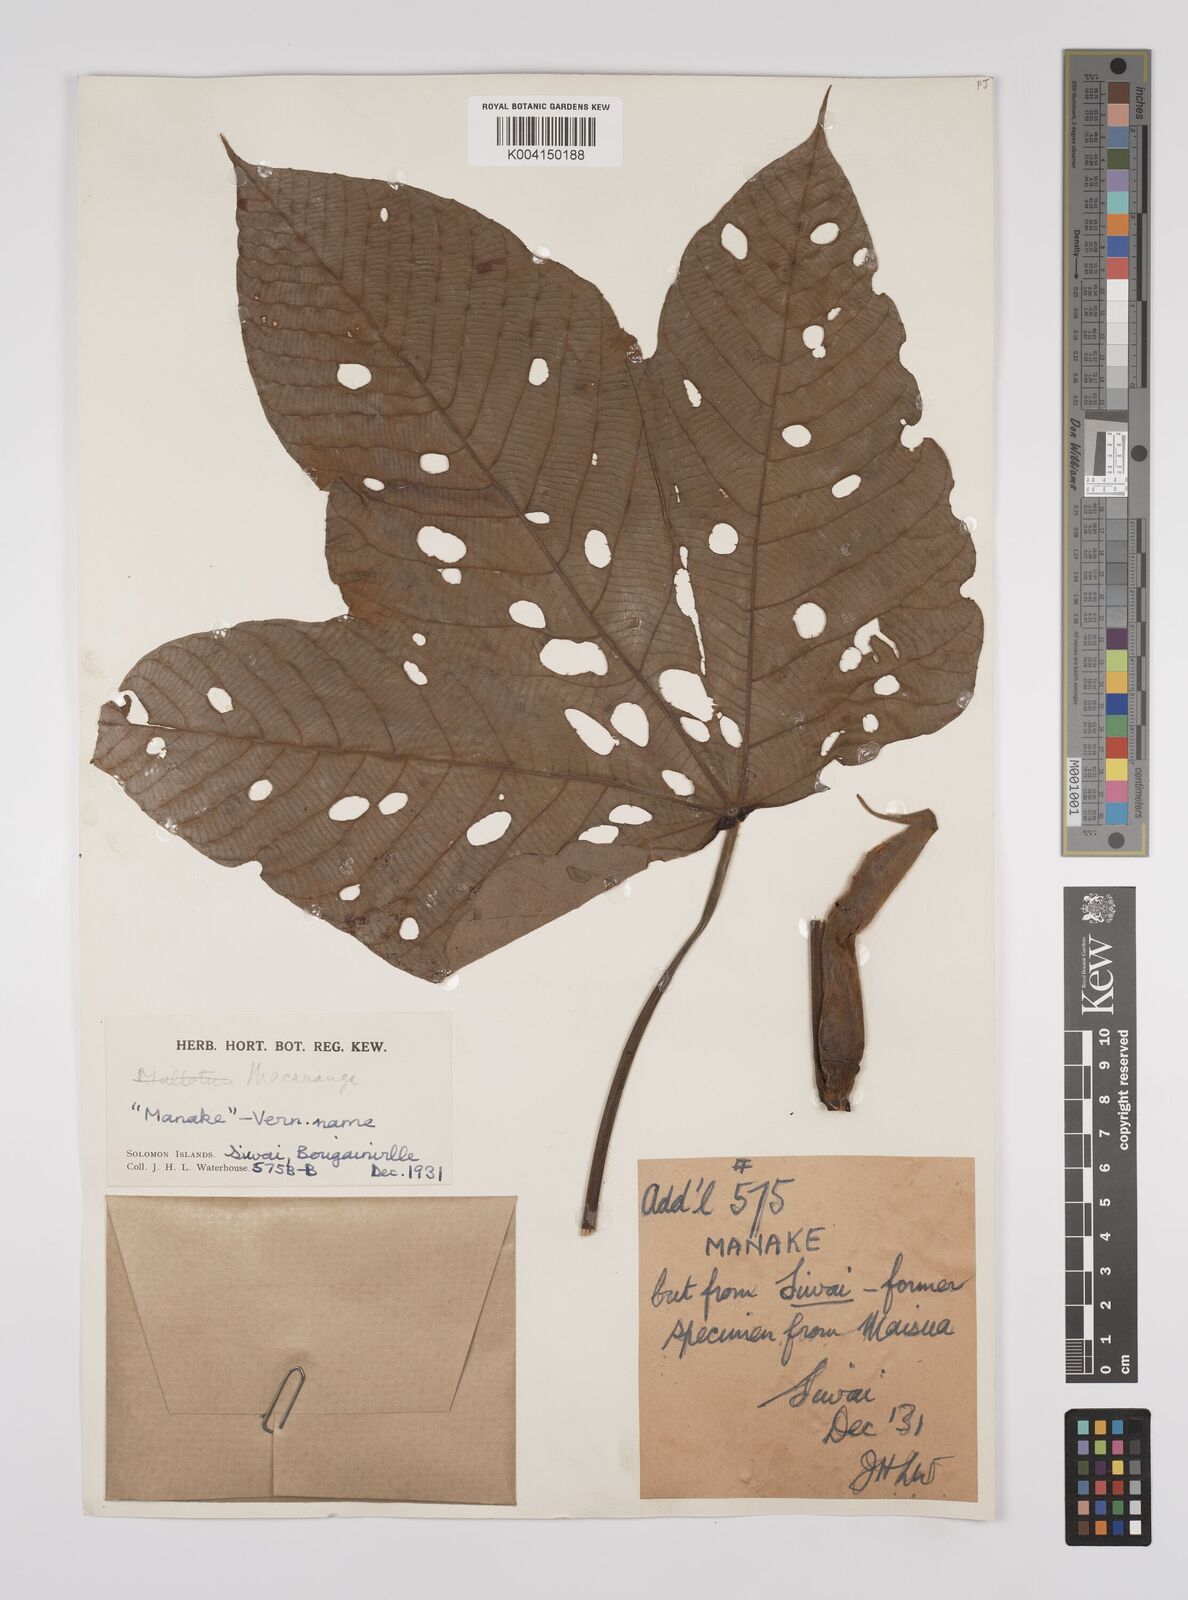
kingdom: Plantae
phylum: Tracheophyta
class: Magnoliopsida
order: Malpighiales
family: Euphorbiaceae
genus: Macaranga
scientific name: Macaranga aleuritoides
